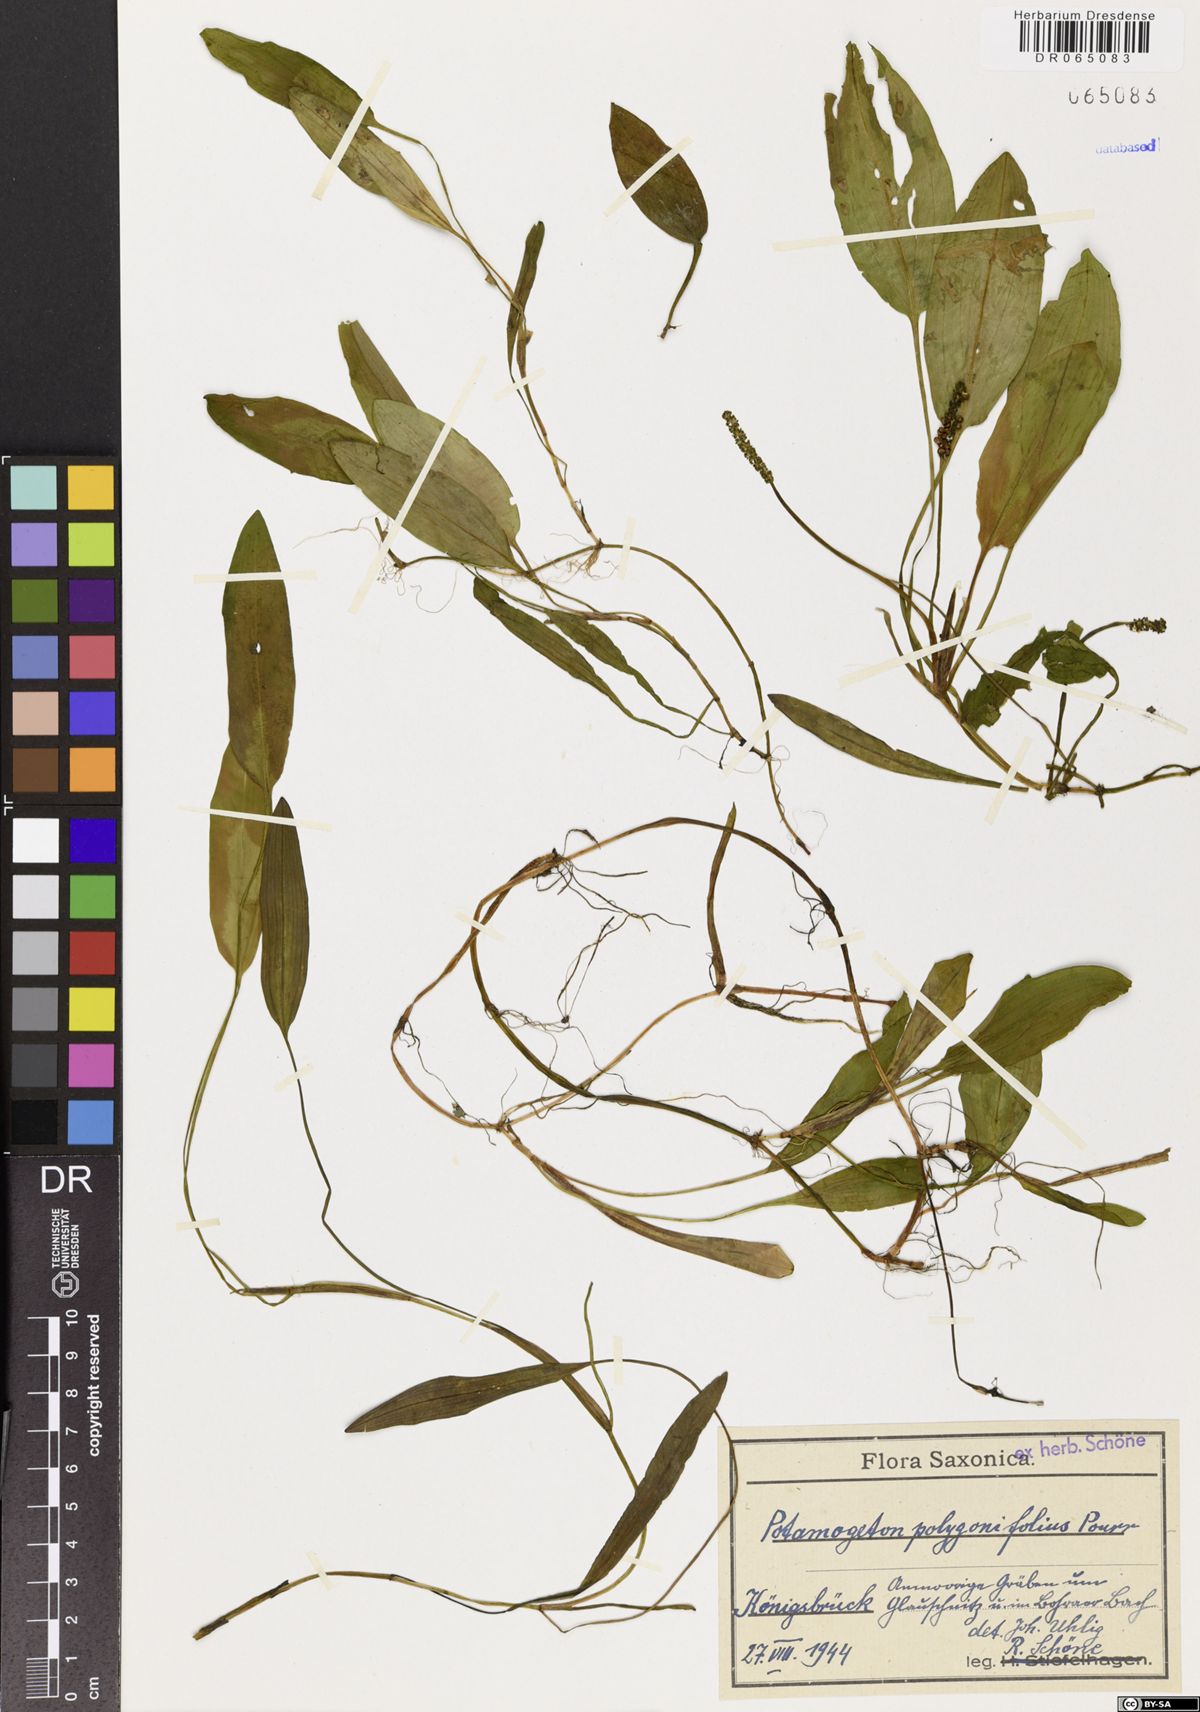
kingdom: Plantae
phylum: Tracheophyta
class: Liliopsida
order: Alismatales
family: Potamogetonaceae
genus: Potamogeton
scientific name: Potamogeton polygonifolius
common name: Bog pondweed
